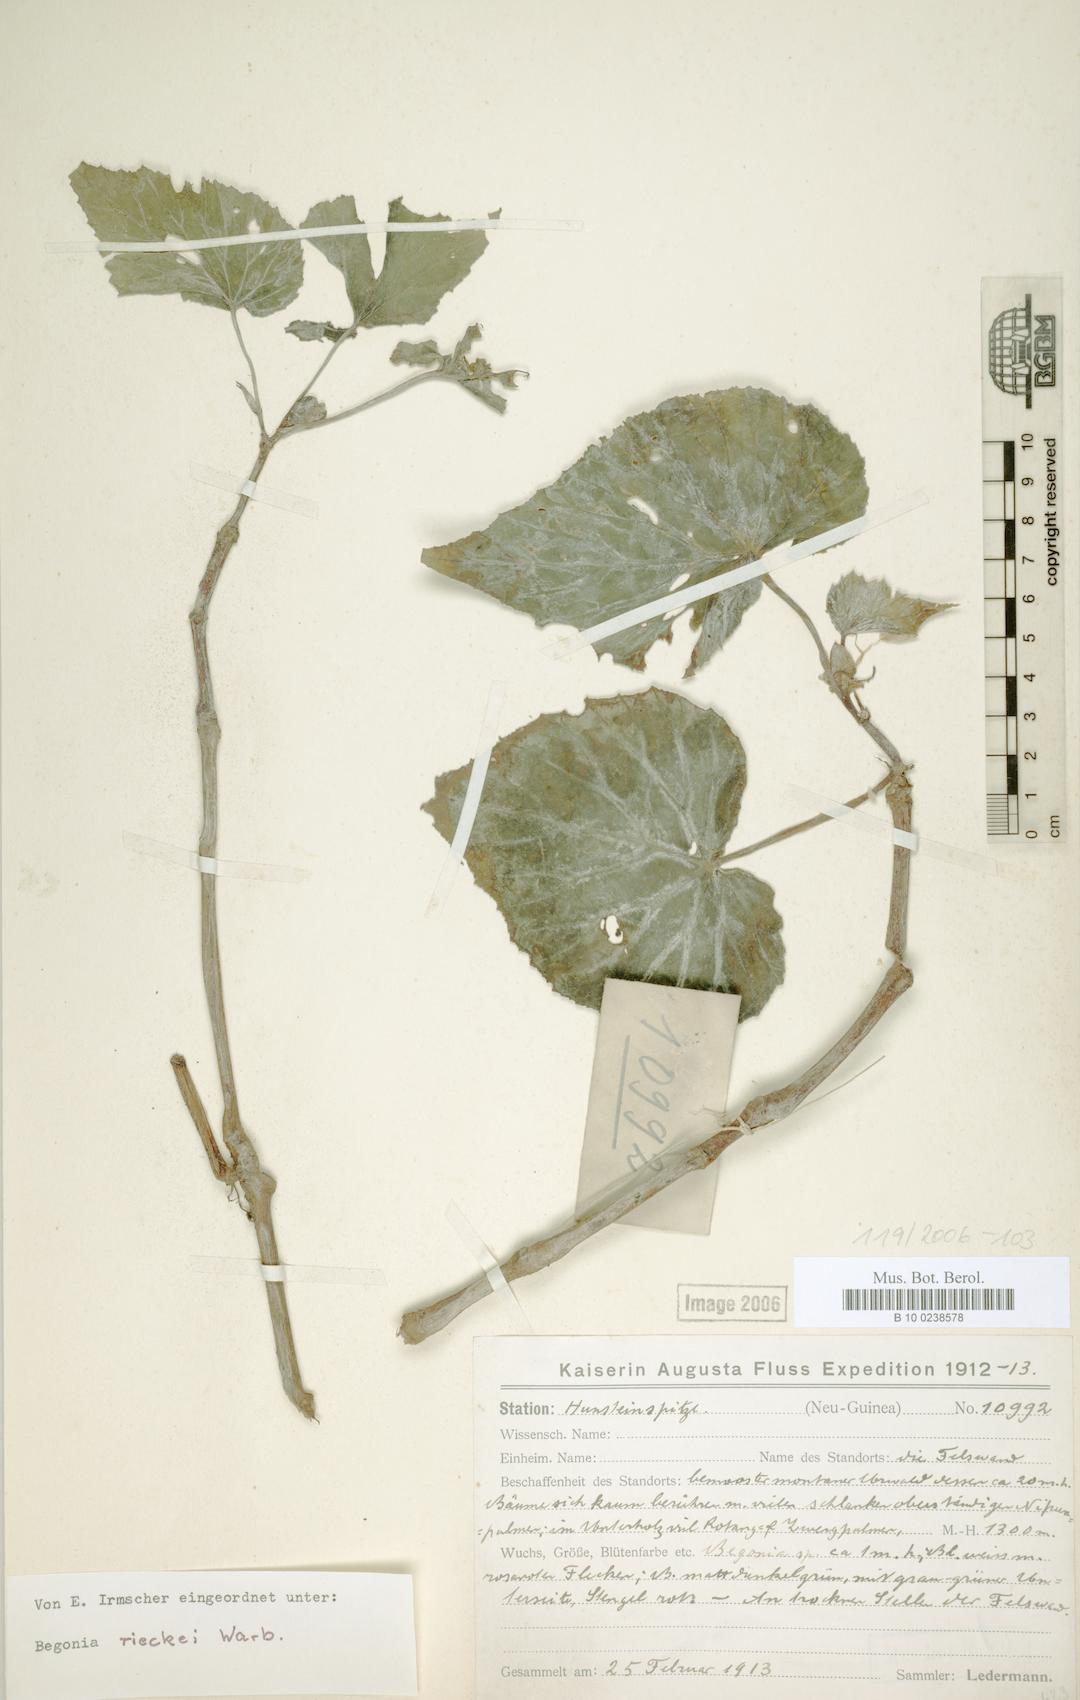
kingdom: Plantae
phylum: Tracheophyta
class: Magnoliopsida
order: Cucurbitales
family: Begoniaceae
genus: Begonia
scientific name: Begonia rieckei
